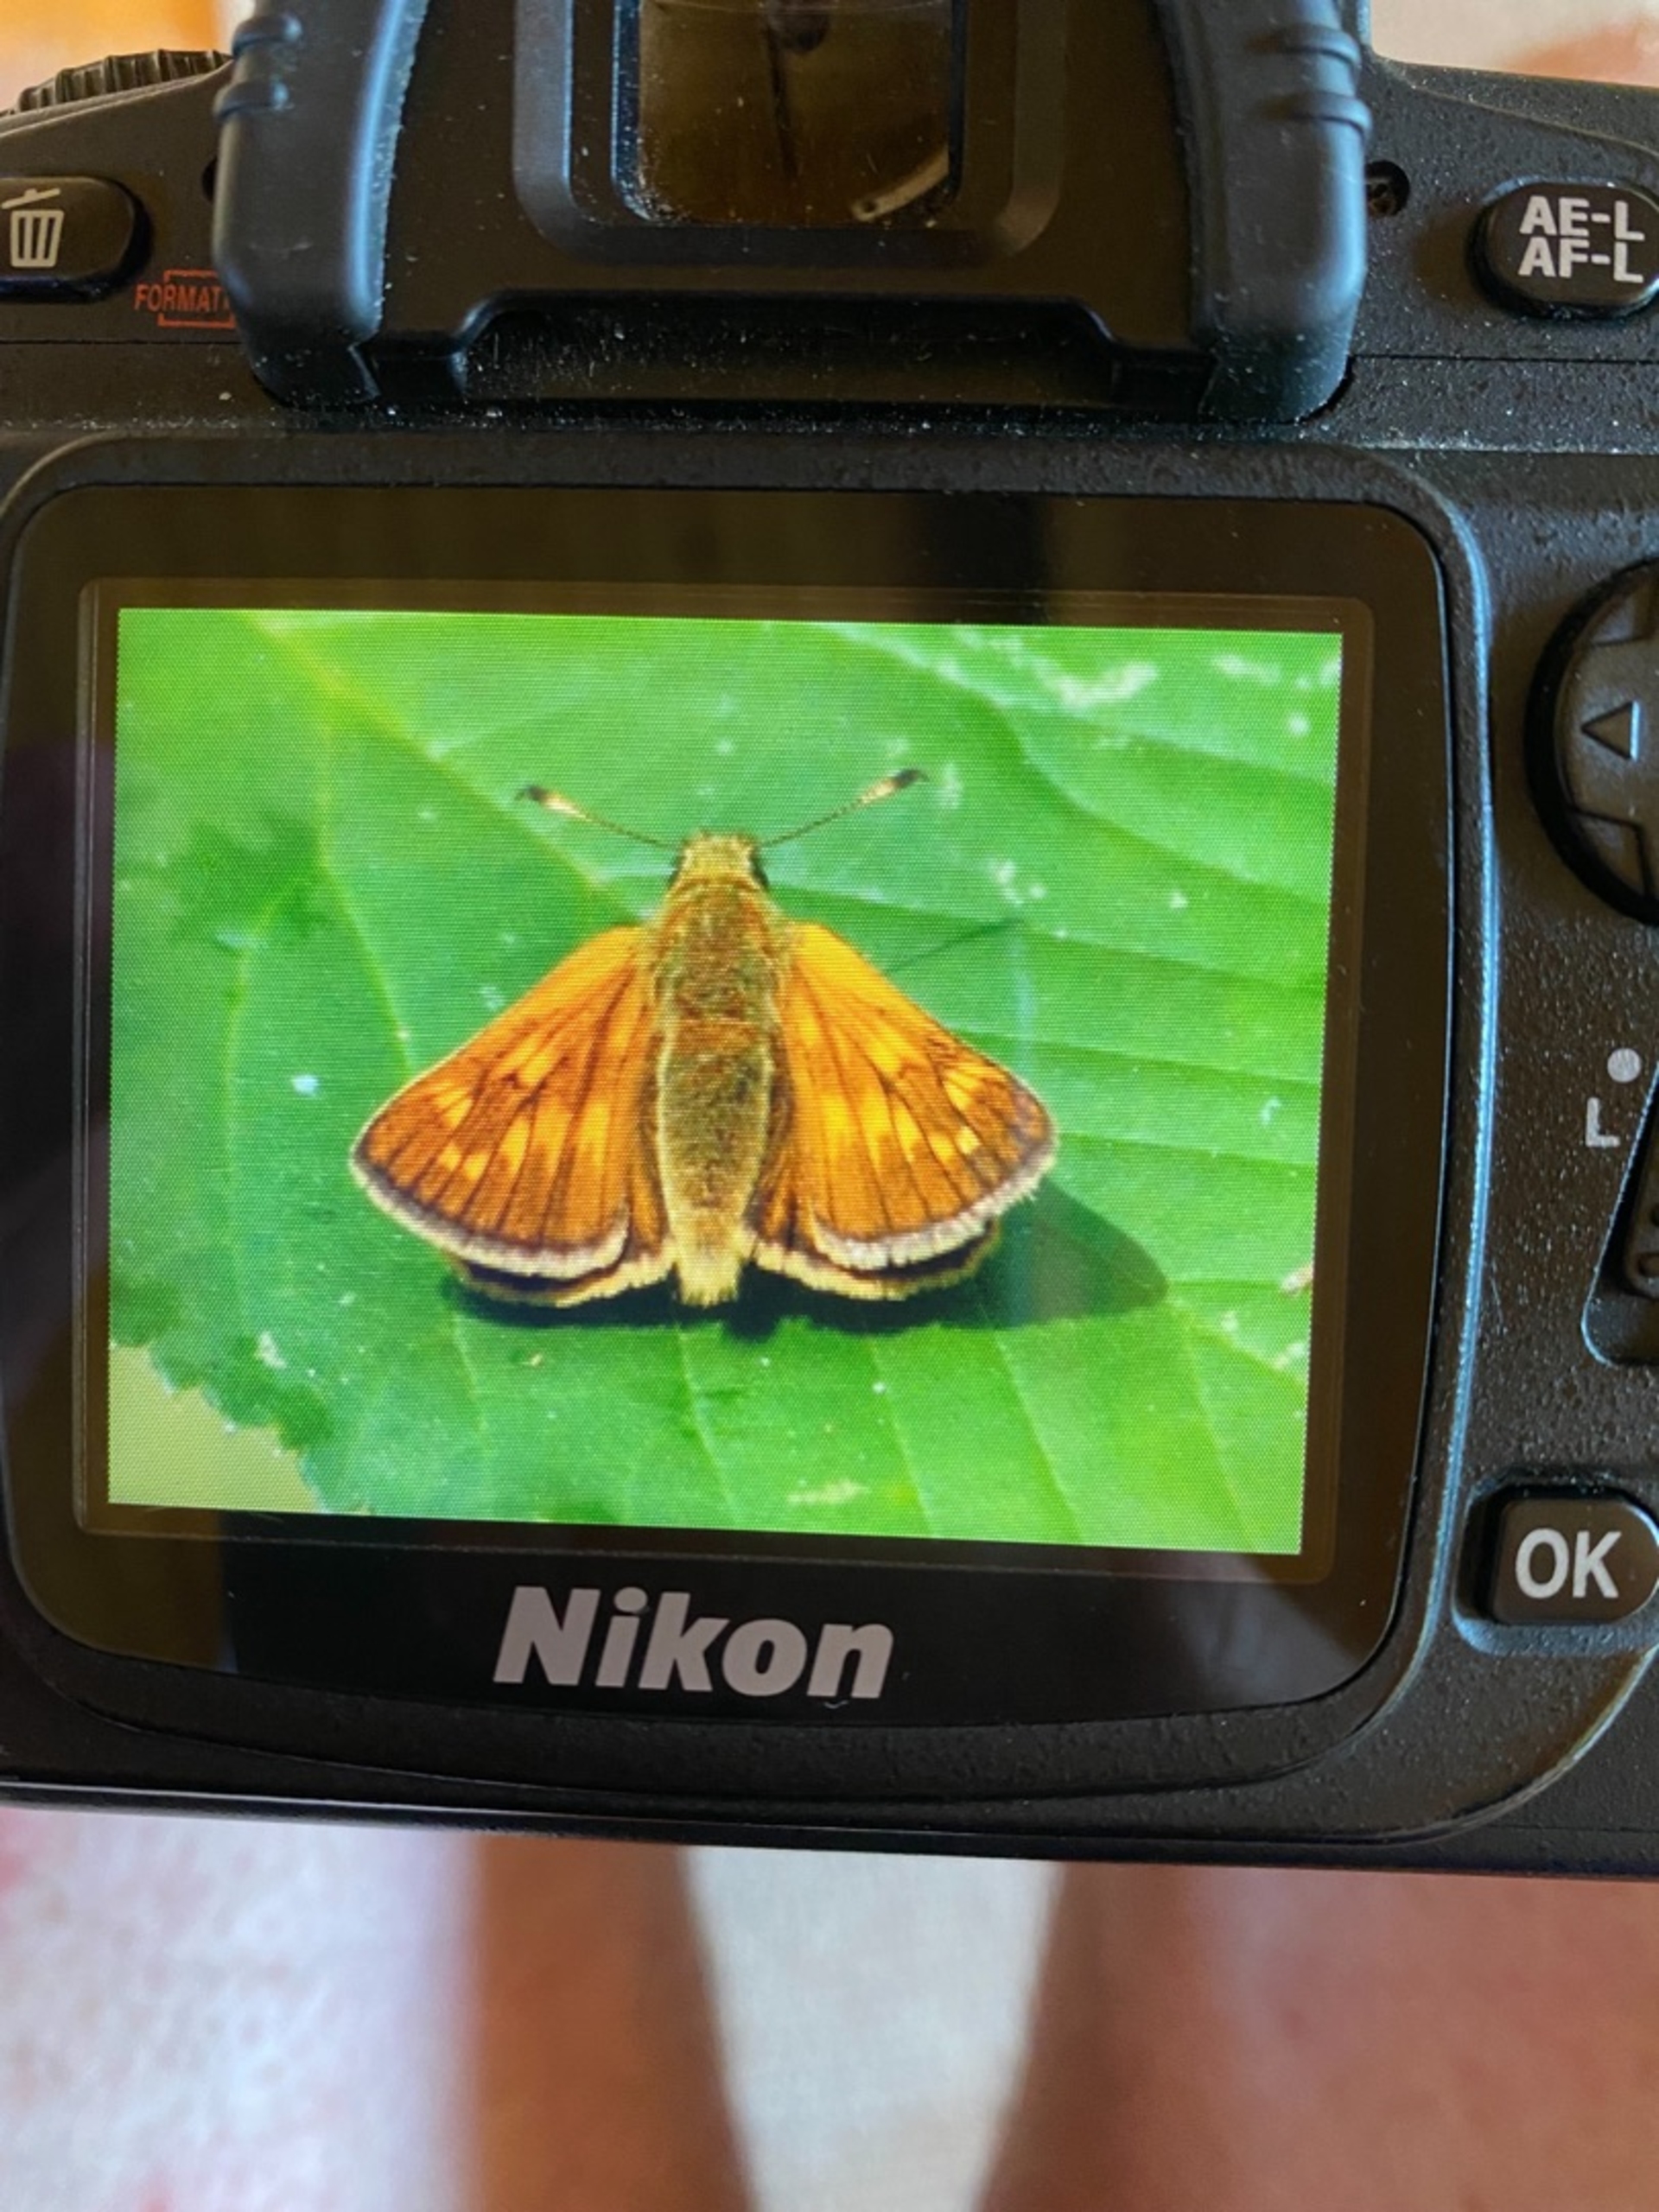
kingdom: Animalia
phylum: Arthropoda
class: Insecta
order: Lepidoptera
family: Hesperiidae
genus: Ochlodes
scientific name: Ochlodes venata
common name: Stor bredpande
